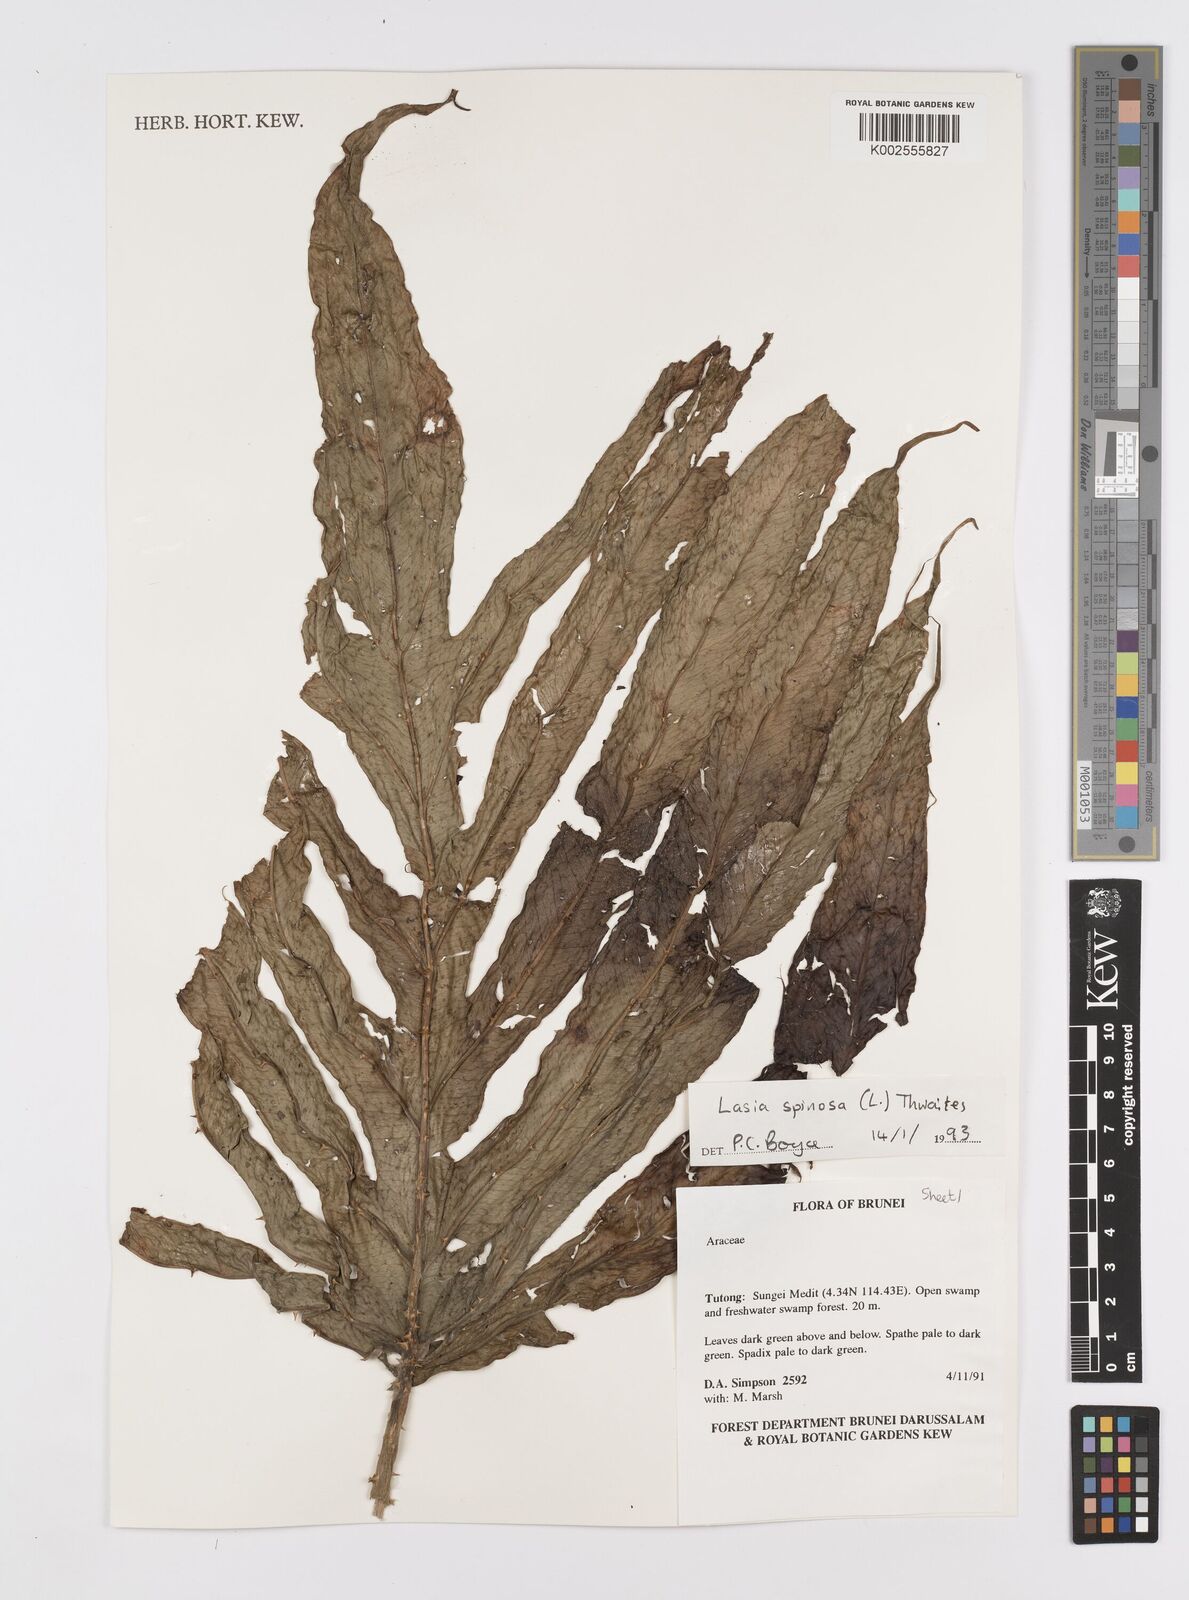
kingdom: Plantae
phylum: Tracheophyta
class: Liliopsida
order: Alismatales
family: Araceae
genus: Lasia
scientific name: Lasia spinosa
